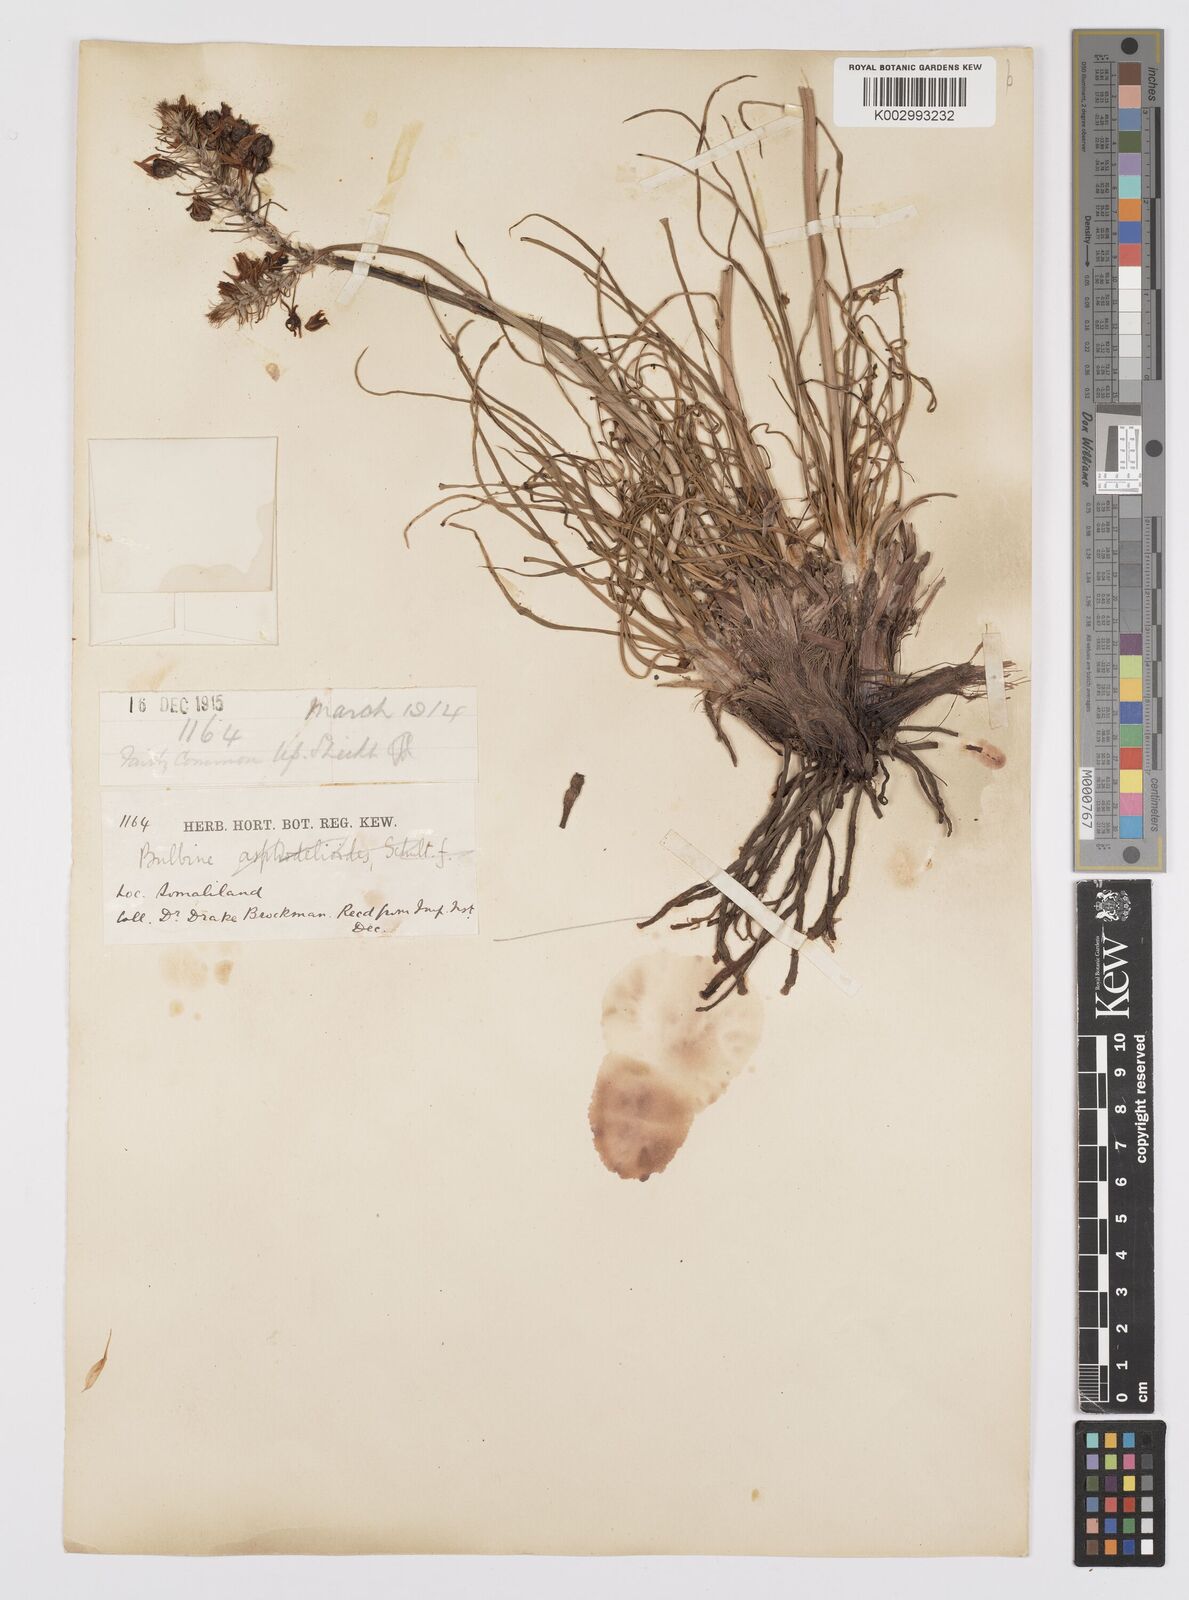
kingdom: Plantae
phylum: Tracheophyta
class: Liliopsida
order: Asparagales
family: Asphodelaceae
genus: Bulbine
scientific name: Bulbine abyssinica
